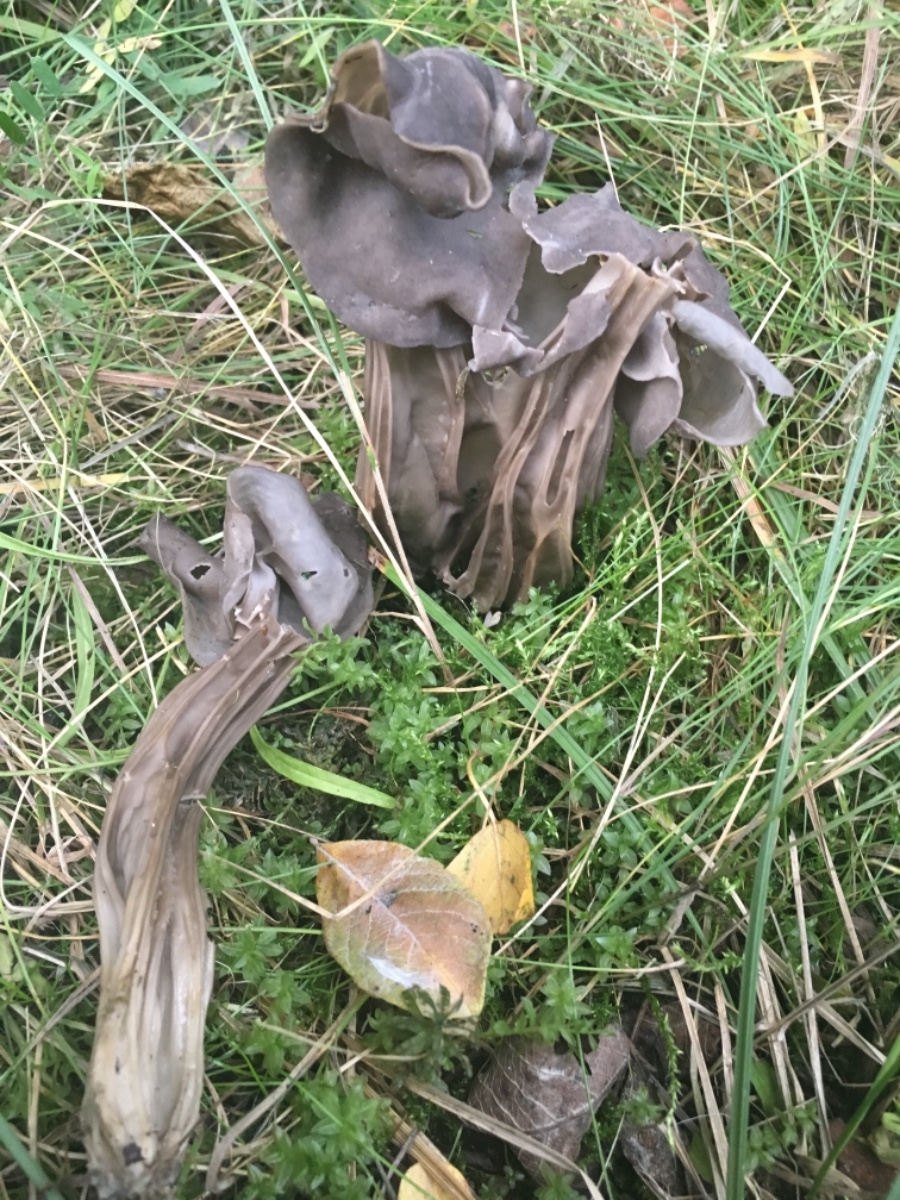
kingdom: Fungi
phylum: Ascomycota
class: Pezizomycetes
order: Pezizales
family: Helvellaceae
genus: Helvella
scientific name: Helvella lacunosa
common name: grubet foldhat
